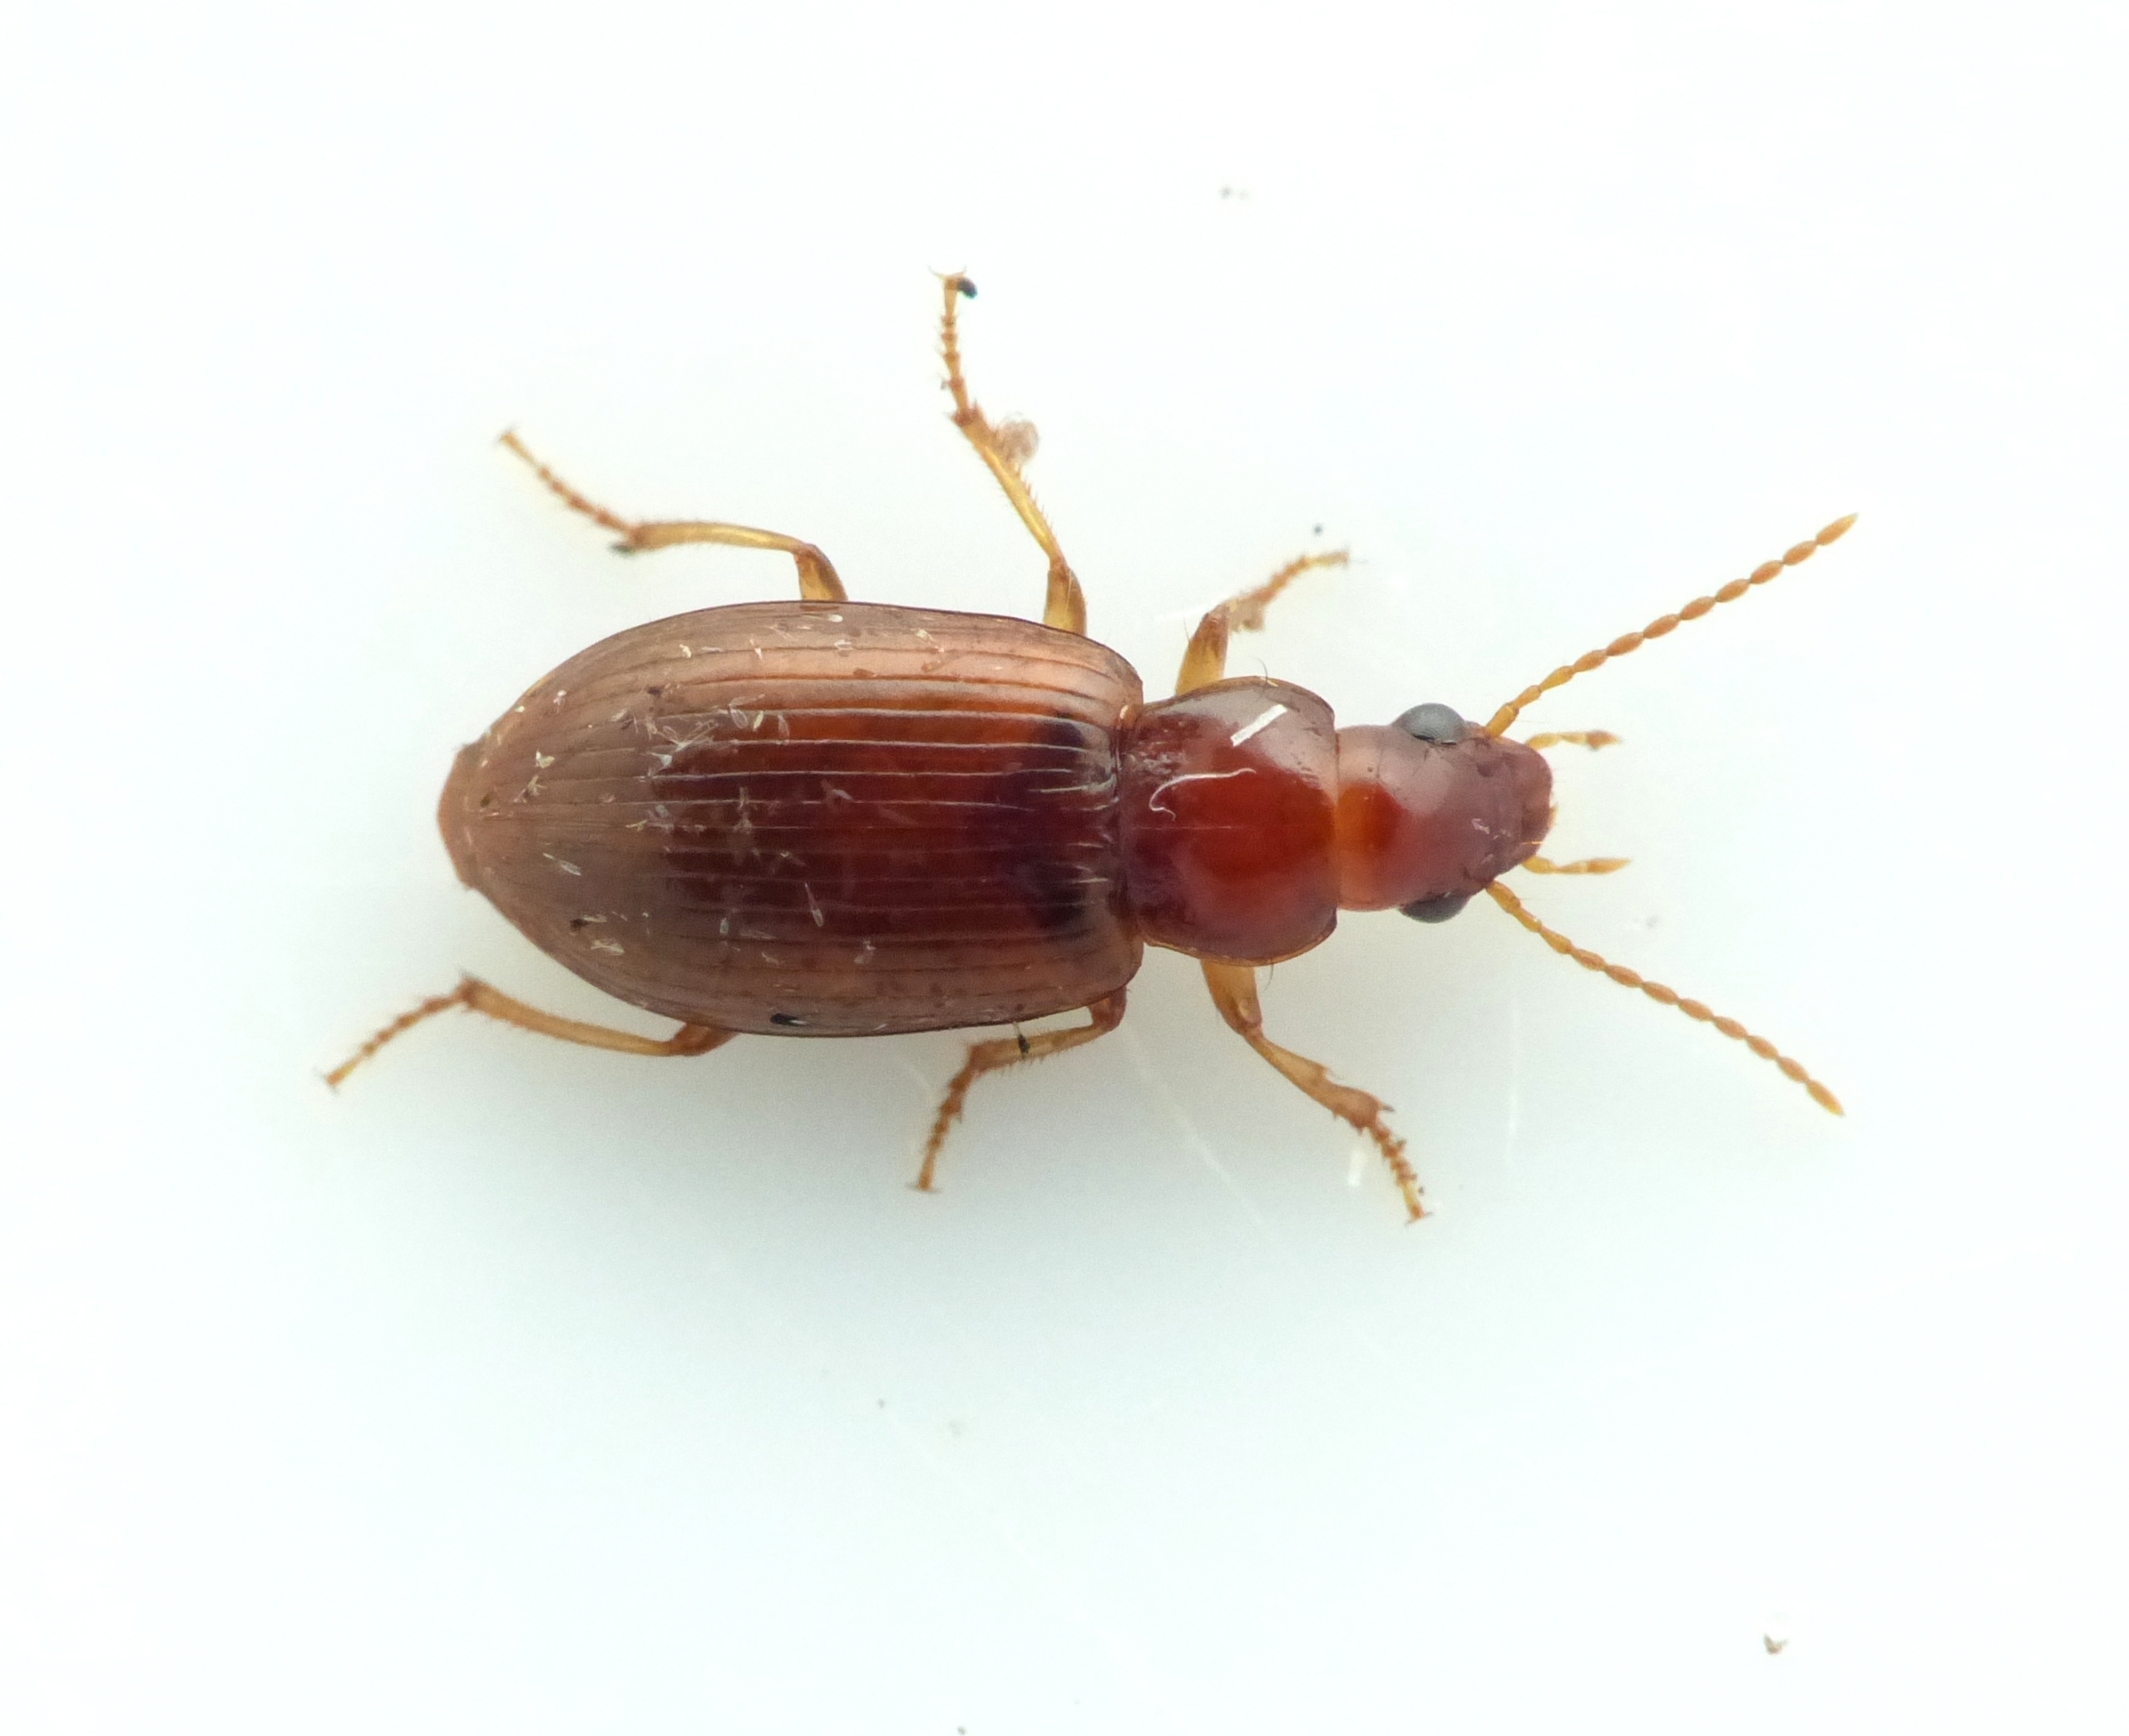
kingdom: Animalia
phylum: Arthropoda
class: Insecta
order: Coleoptera
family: Carabidae
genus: Bradycellus
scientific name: Bradycellus verbasci
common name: Lys brunløber
